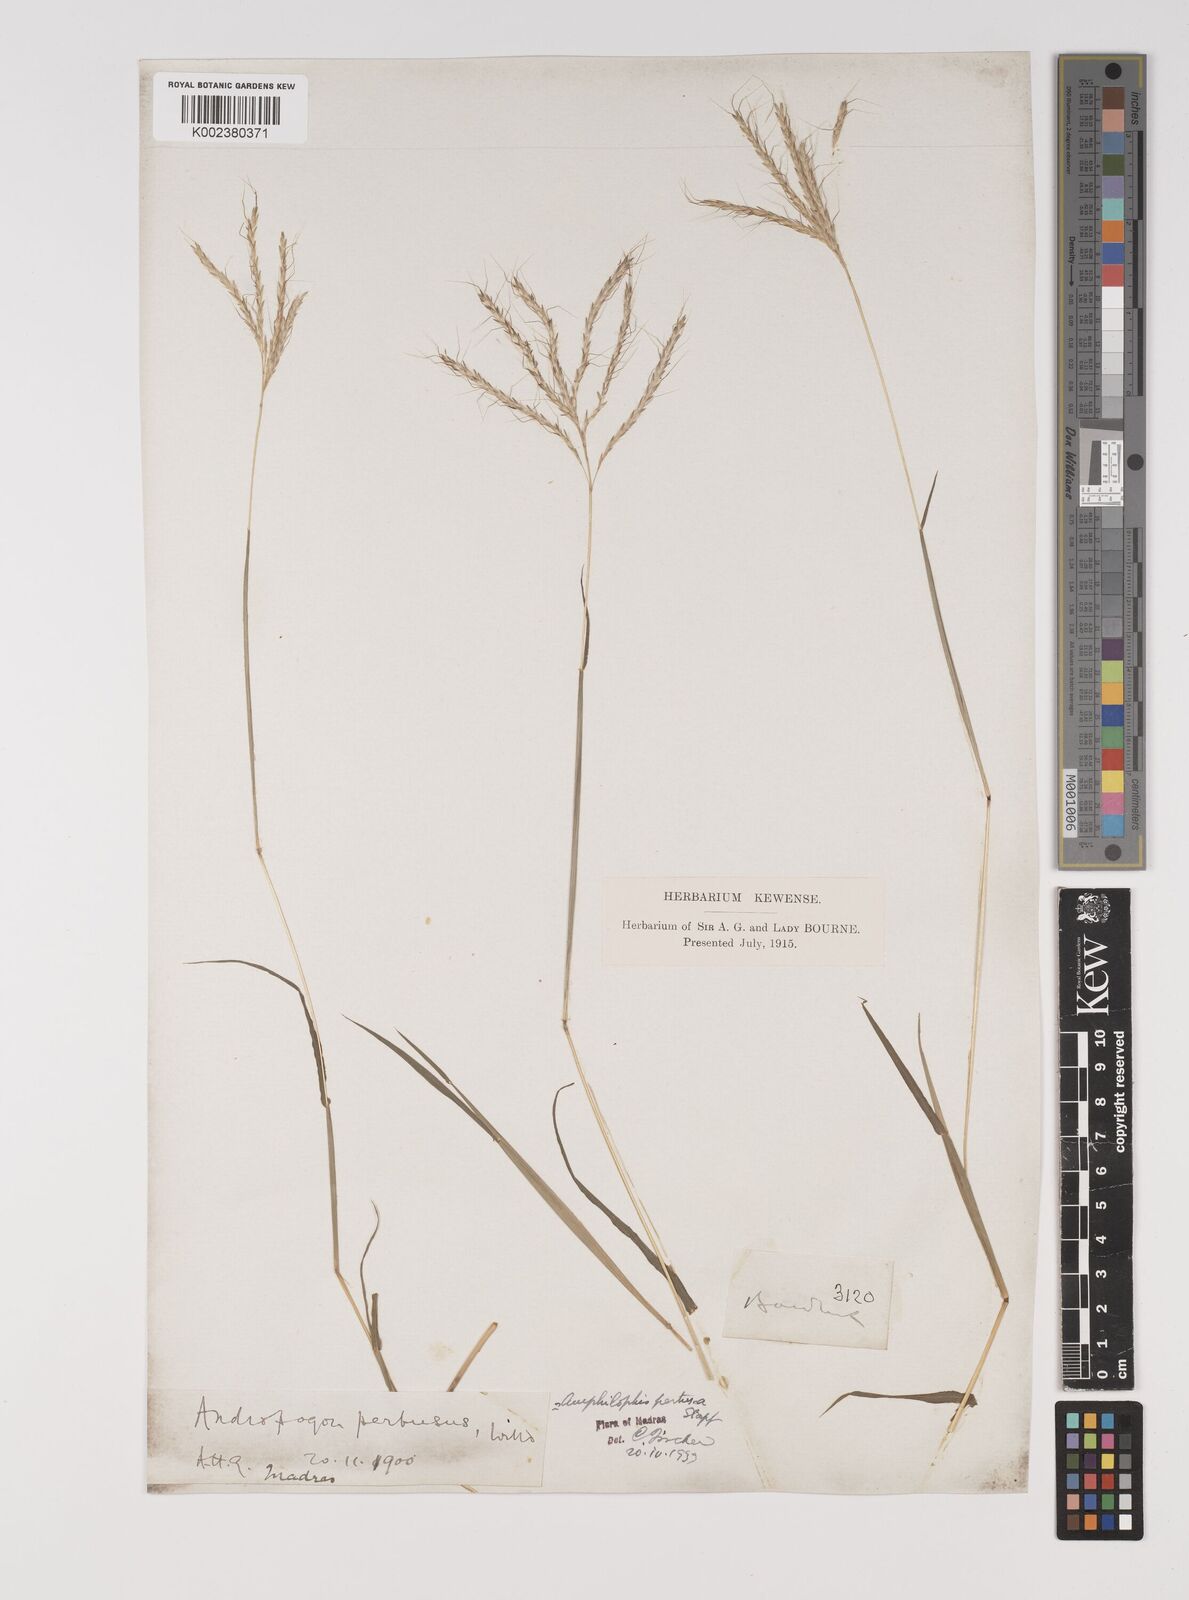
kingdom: Plantae
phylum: Tracheophyta
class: Liliopsida
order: Poales
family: Poaceae
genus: Bothriochloa
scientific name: Bothriochloa pertusa
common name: Pitted beardgrass
